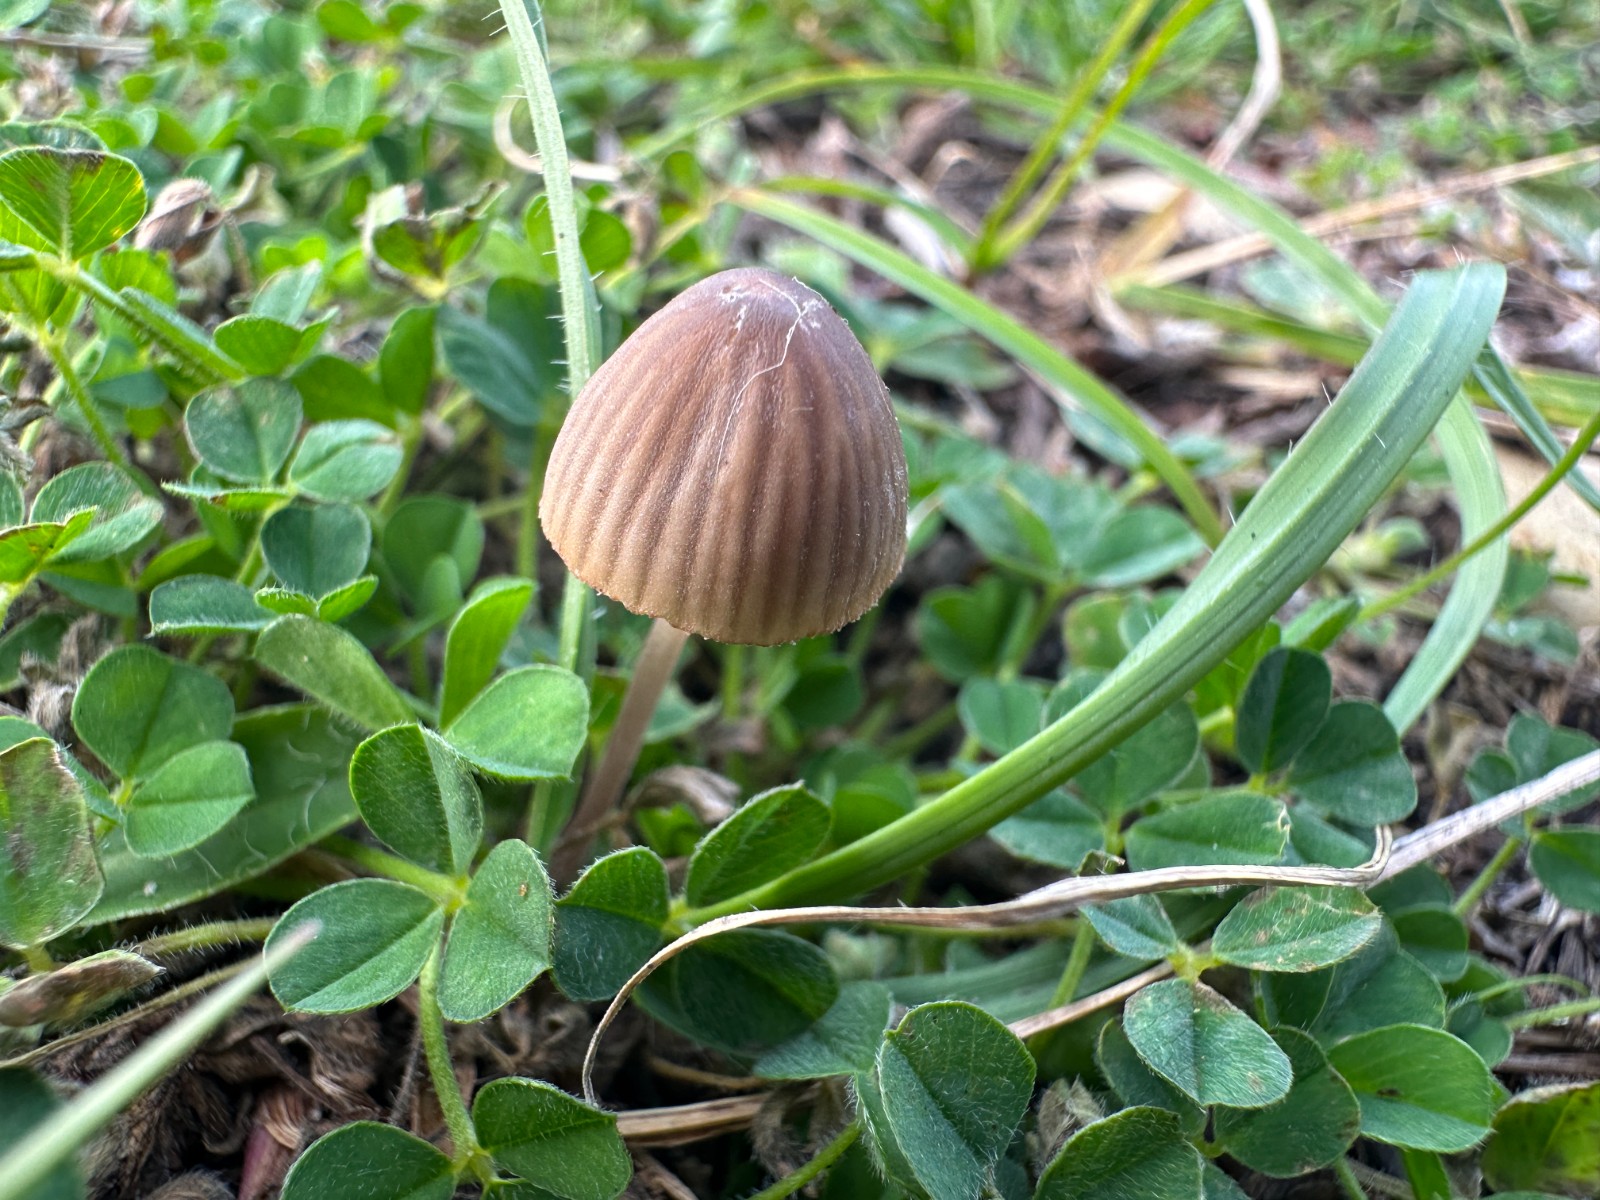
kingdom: Fungi
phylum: Basidiomycota
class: Agaricomycetes
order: Agaricales
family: Mycenaceae
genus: Mycena
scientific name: Mycena olivaceomarginata
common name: brunægget huesvamp
